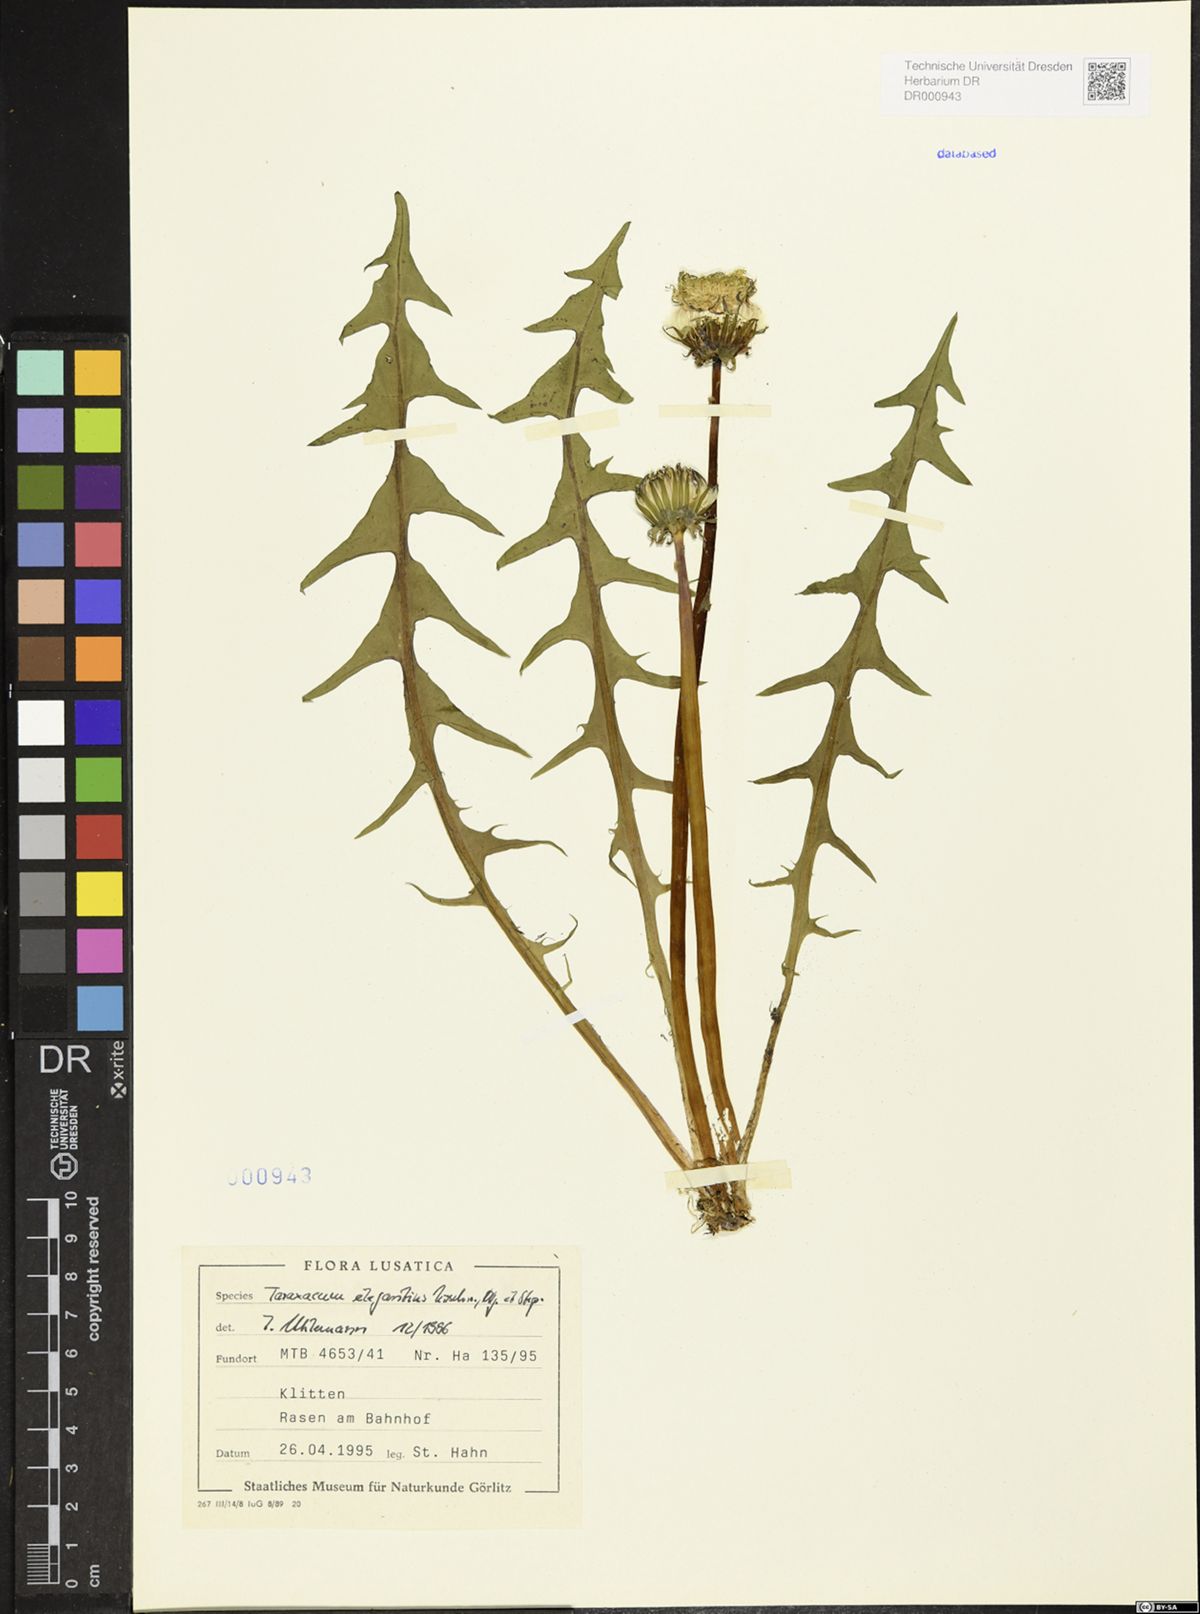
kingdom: Plantae
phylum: Tracheophyta
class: Magnoliopsida
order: Asterales
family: Asteraceae
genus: Taraxacum
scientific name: Taraxacum elegantius
